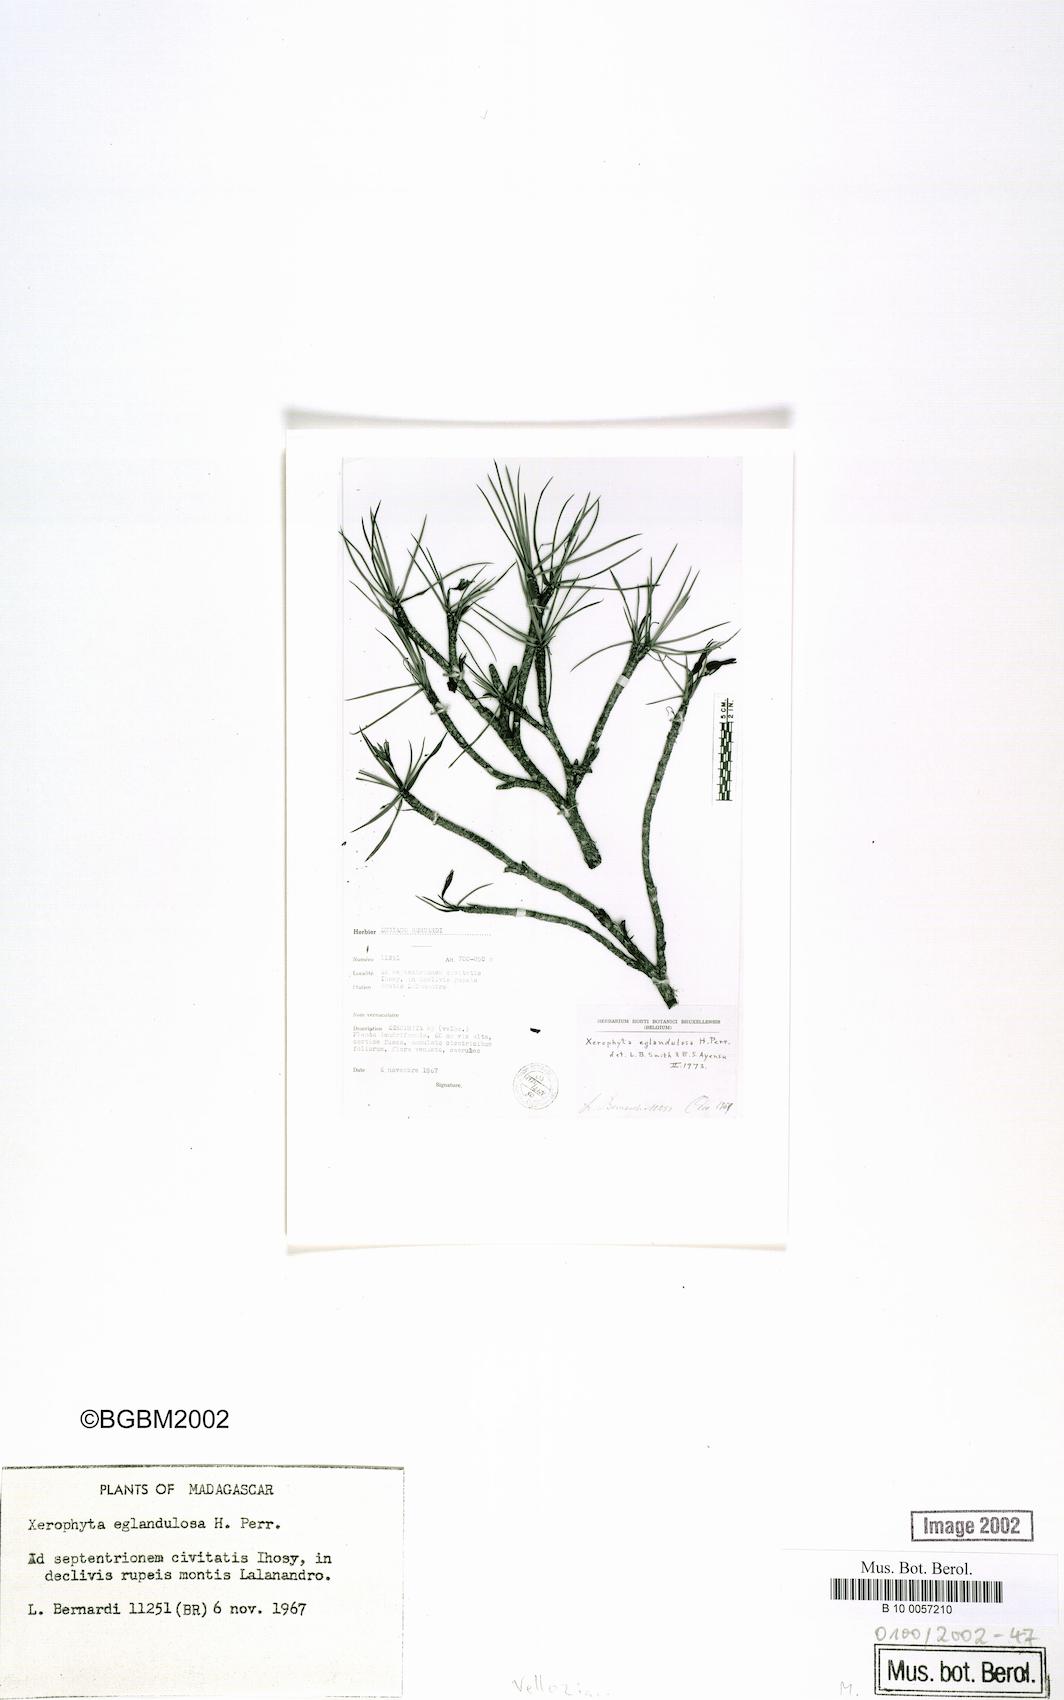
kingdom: Plantae
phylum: Tracheophyta
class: Liliopsida
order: Pandanales
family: Velloziaceae
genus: Xerophyta
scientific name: Xerophyta eglandulosa
